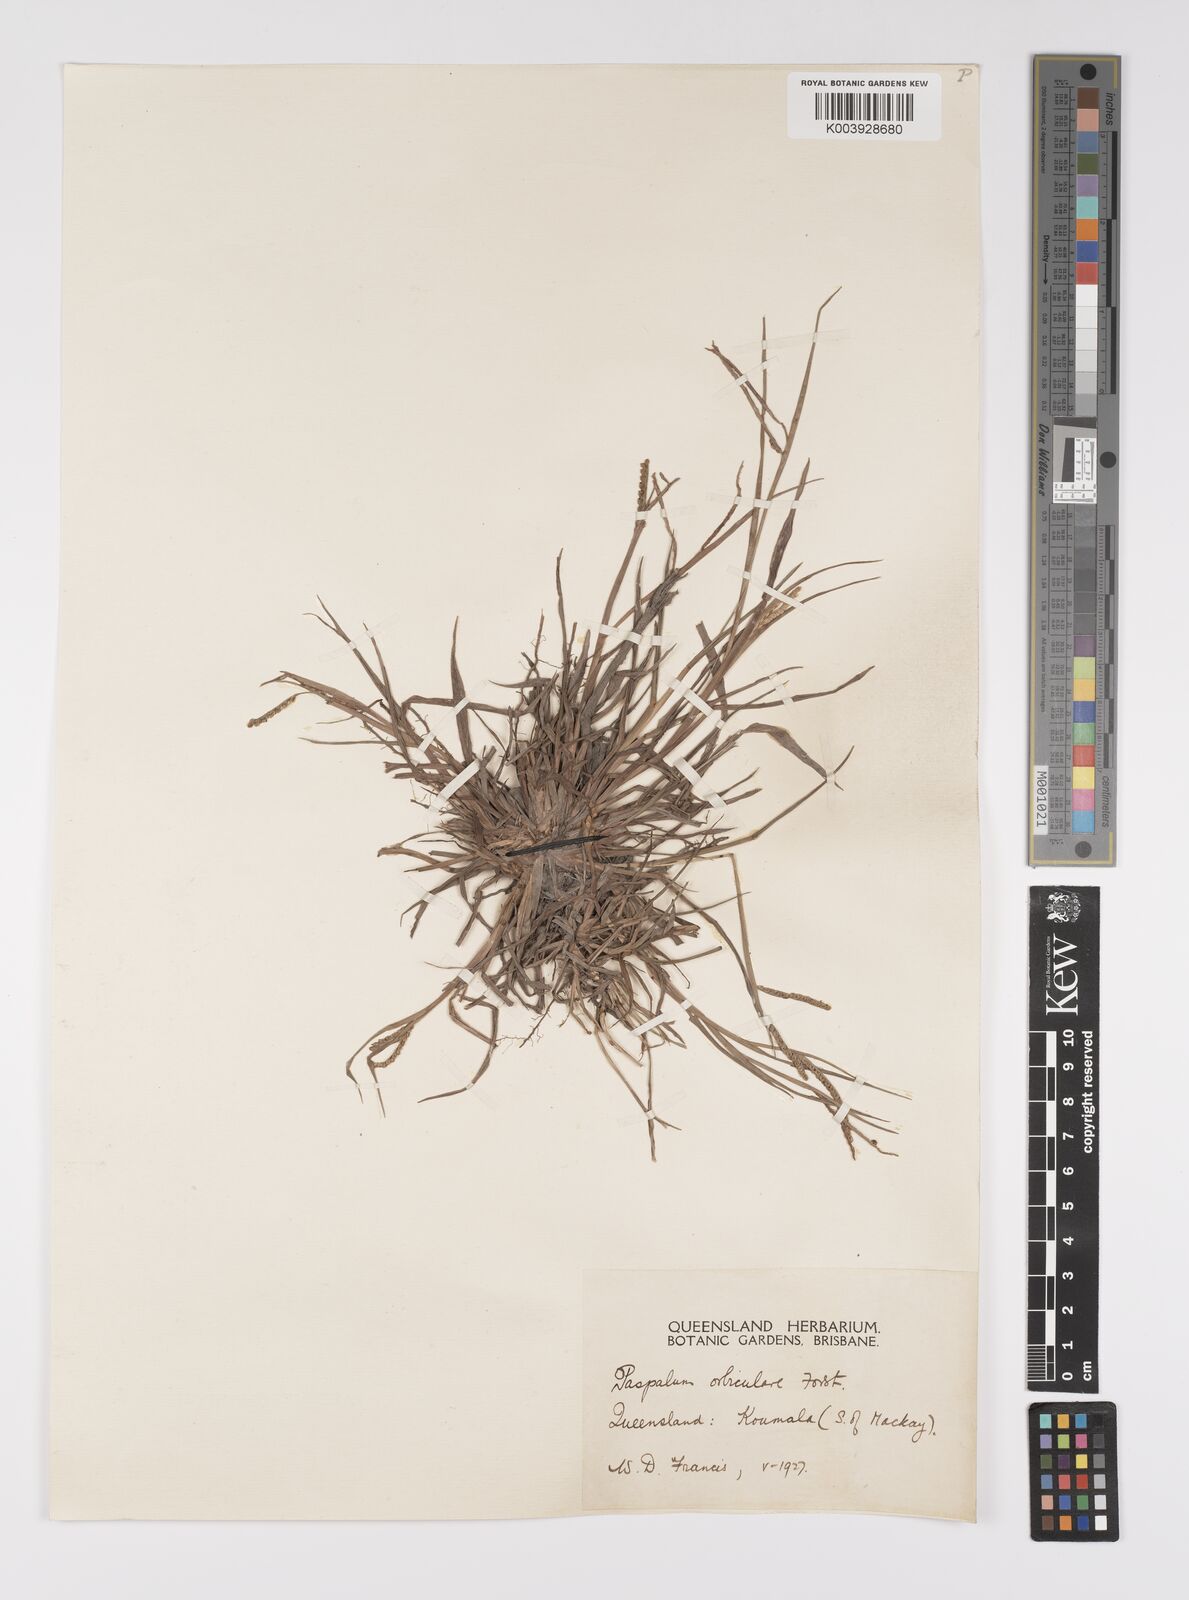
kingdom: Plantae
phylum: Tracheophyta
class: Liliopsida
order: Poales
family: Poaceae
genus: Paspalum
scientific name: Paspalum scrobiculatum
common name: Kodo millet
